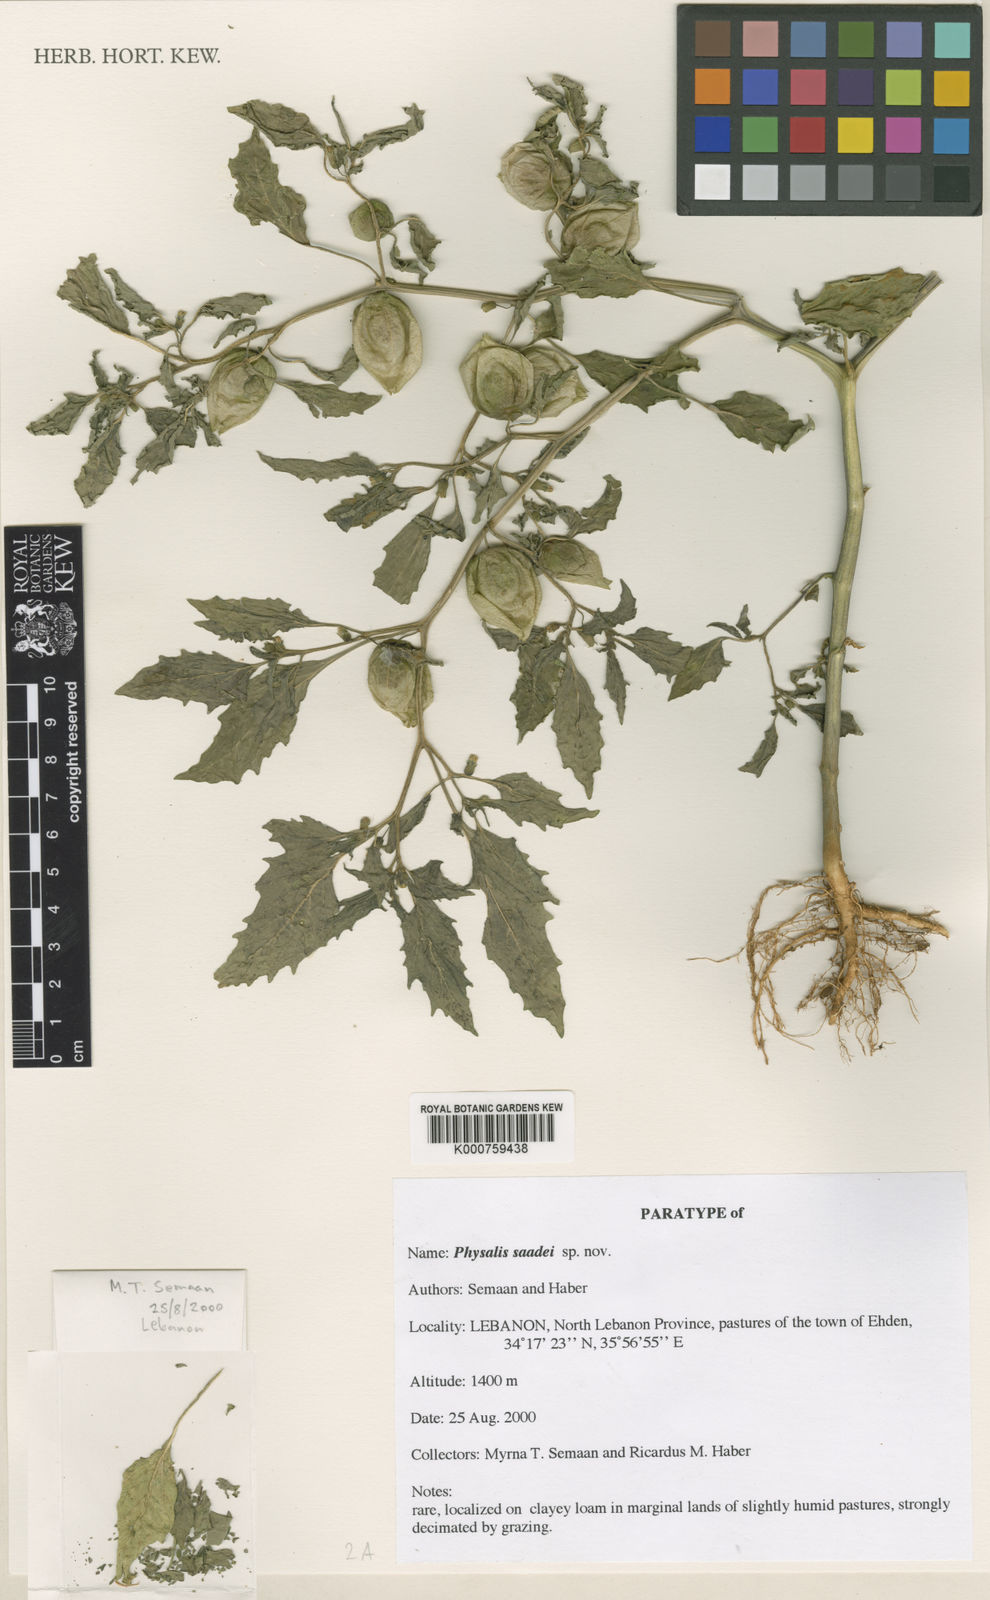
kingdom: Plantae
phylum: Tracheophyta
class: Magnoliopsida
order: Solanales
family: Solanaceae
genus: Physalis
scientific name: Physalis
